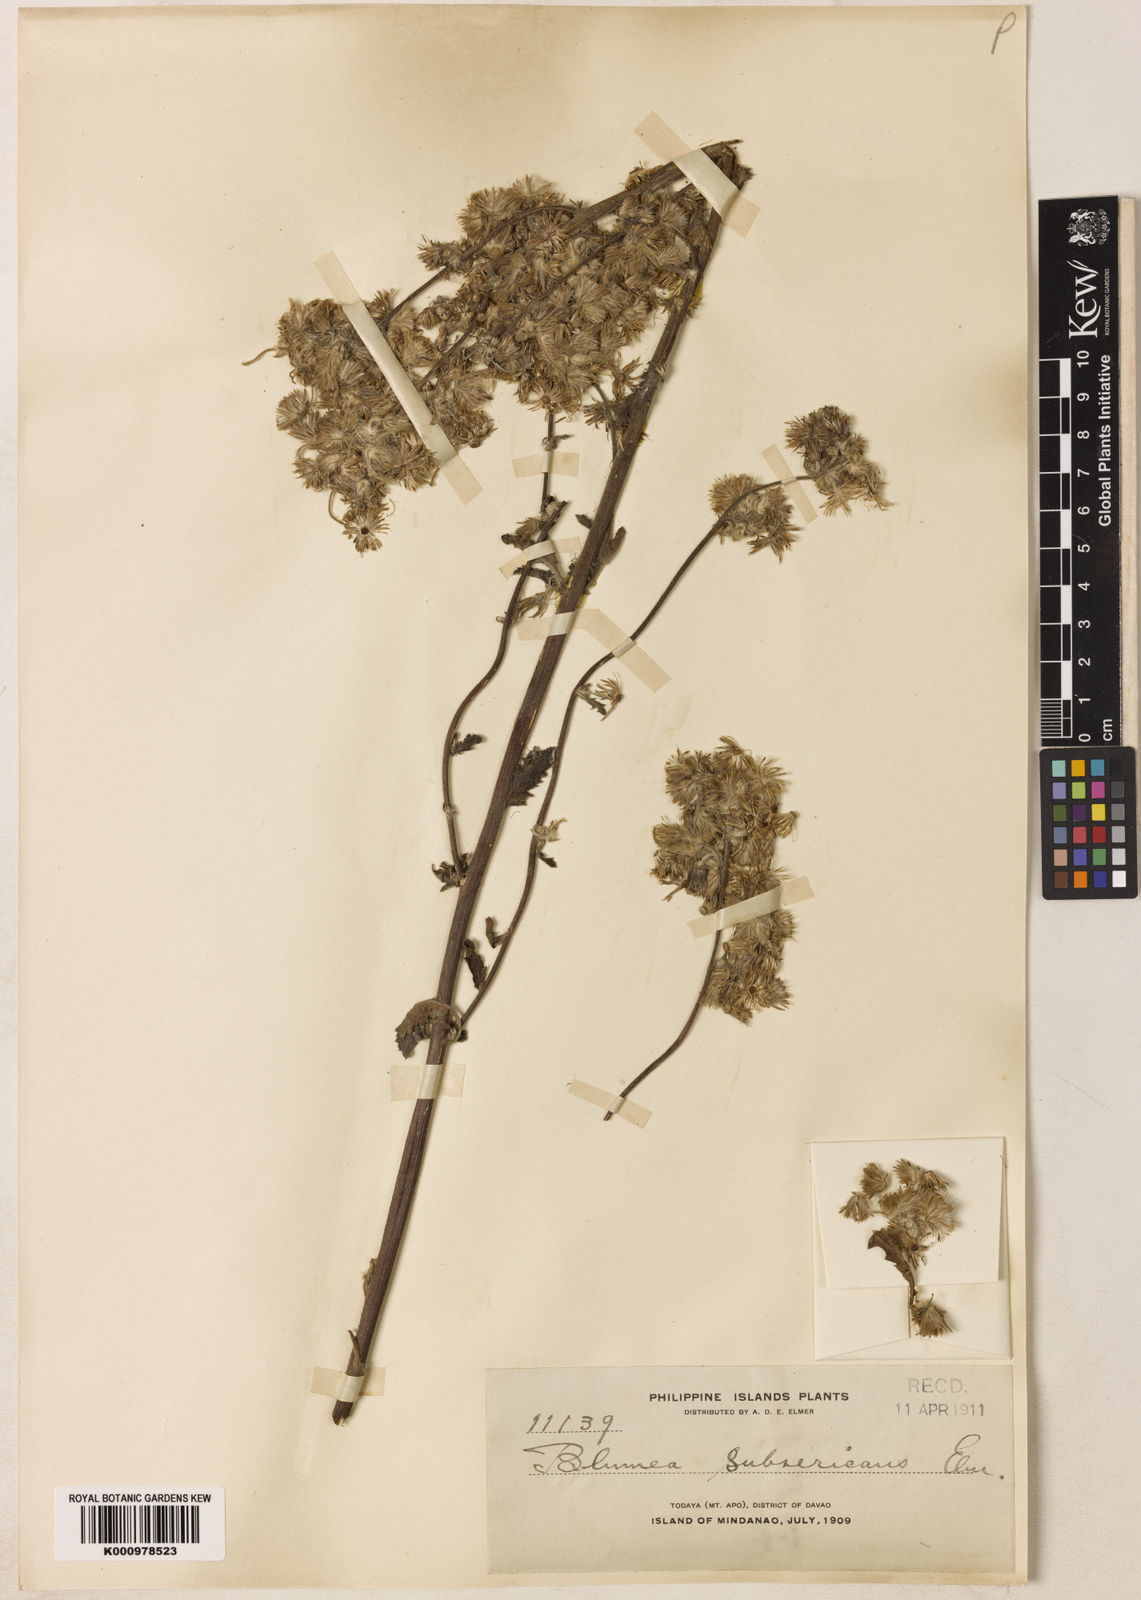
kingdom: Plantae
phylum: Tracheophyta
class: Magnoliopsida
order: Asterales
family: Asteraceae
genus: Blumea
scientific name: Blumea hieraciifolia
